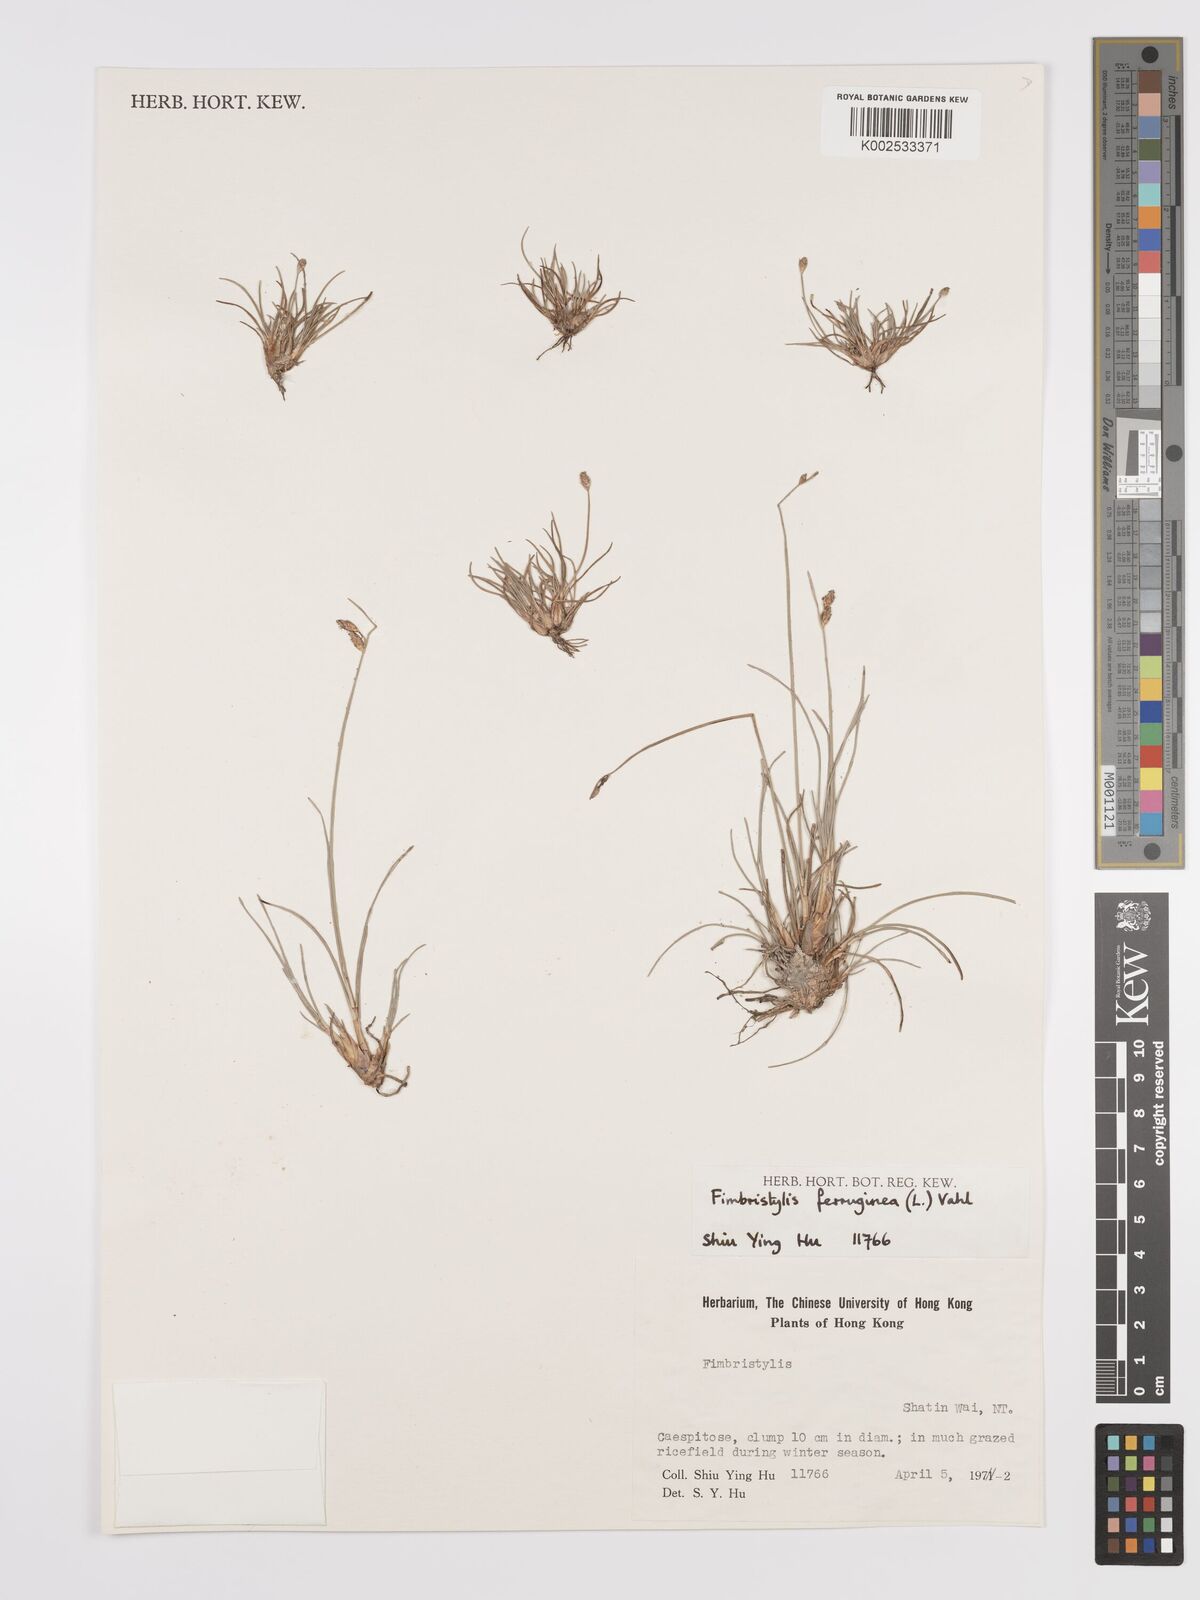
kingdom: Plantae
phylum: Tracheophyta
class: Liliopsida
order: Poales
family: Cyperaceae
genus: Fimbristylis
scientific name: Fimbristylis ferruginea
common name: West indian fimbry
